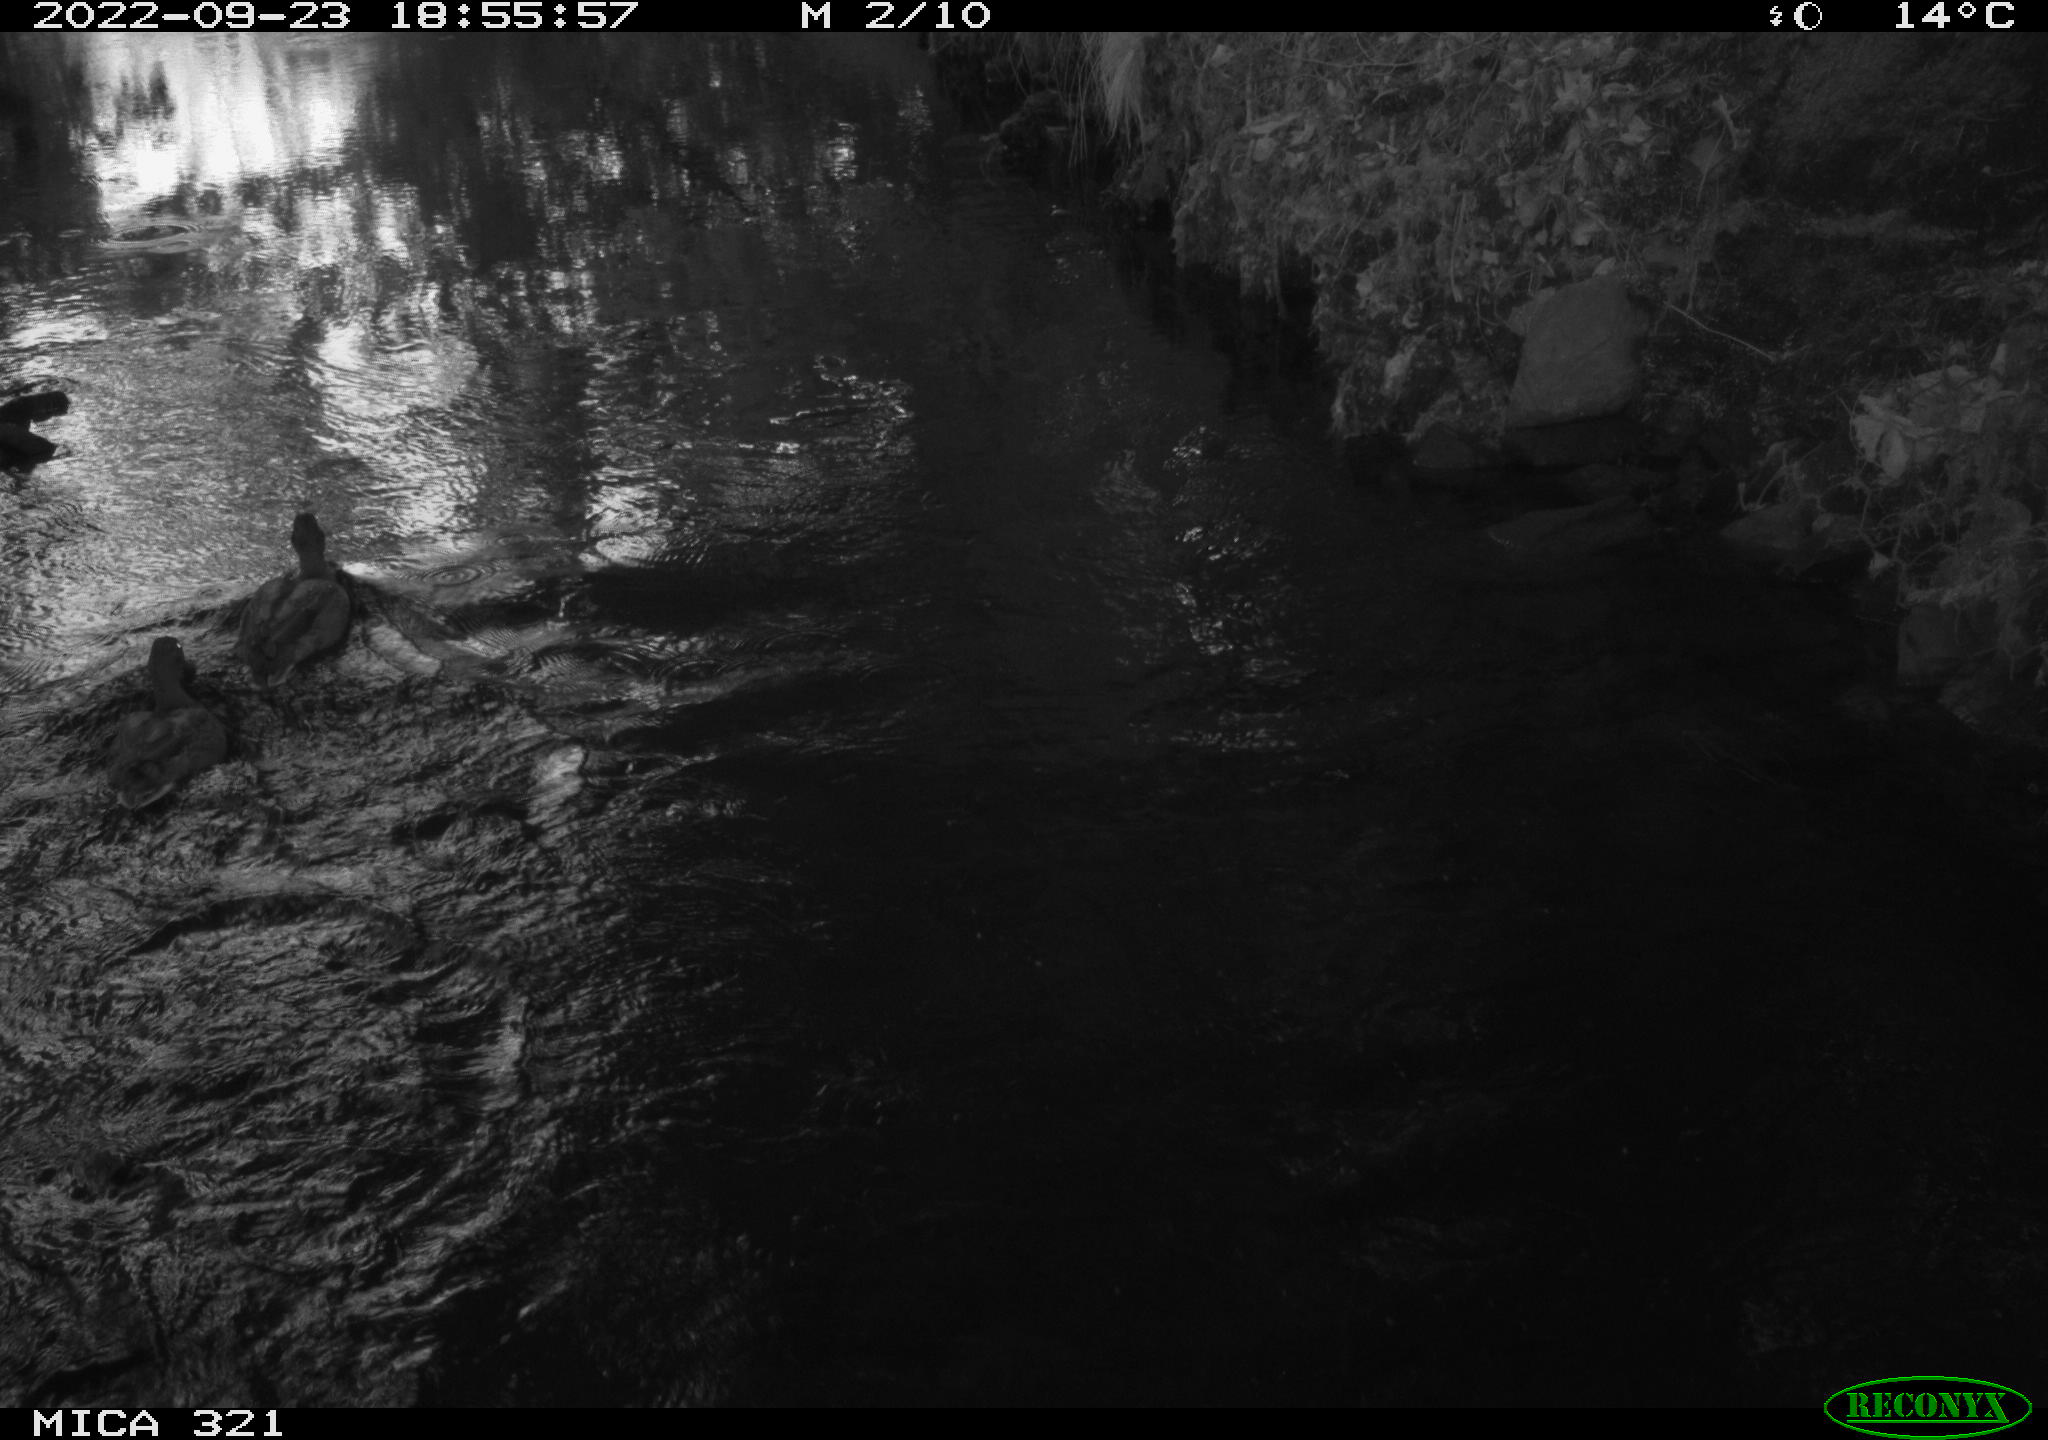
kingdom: Animalia
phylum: Chordata
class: Aves
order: Anseriformes
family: Anatidae
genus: Anas
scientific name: Anas
